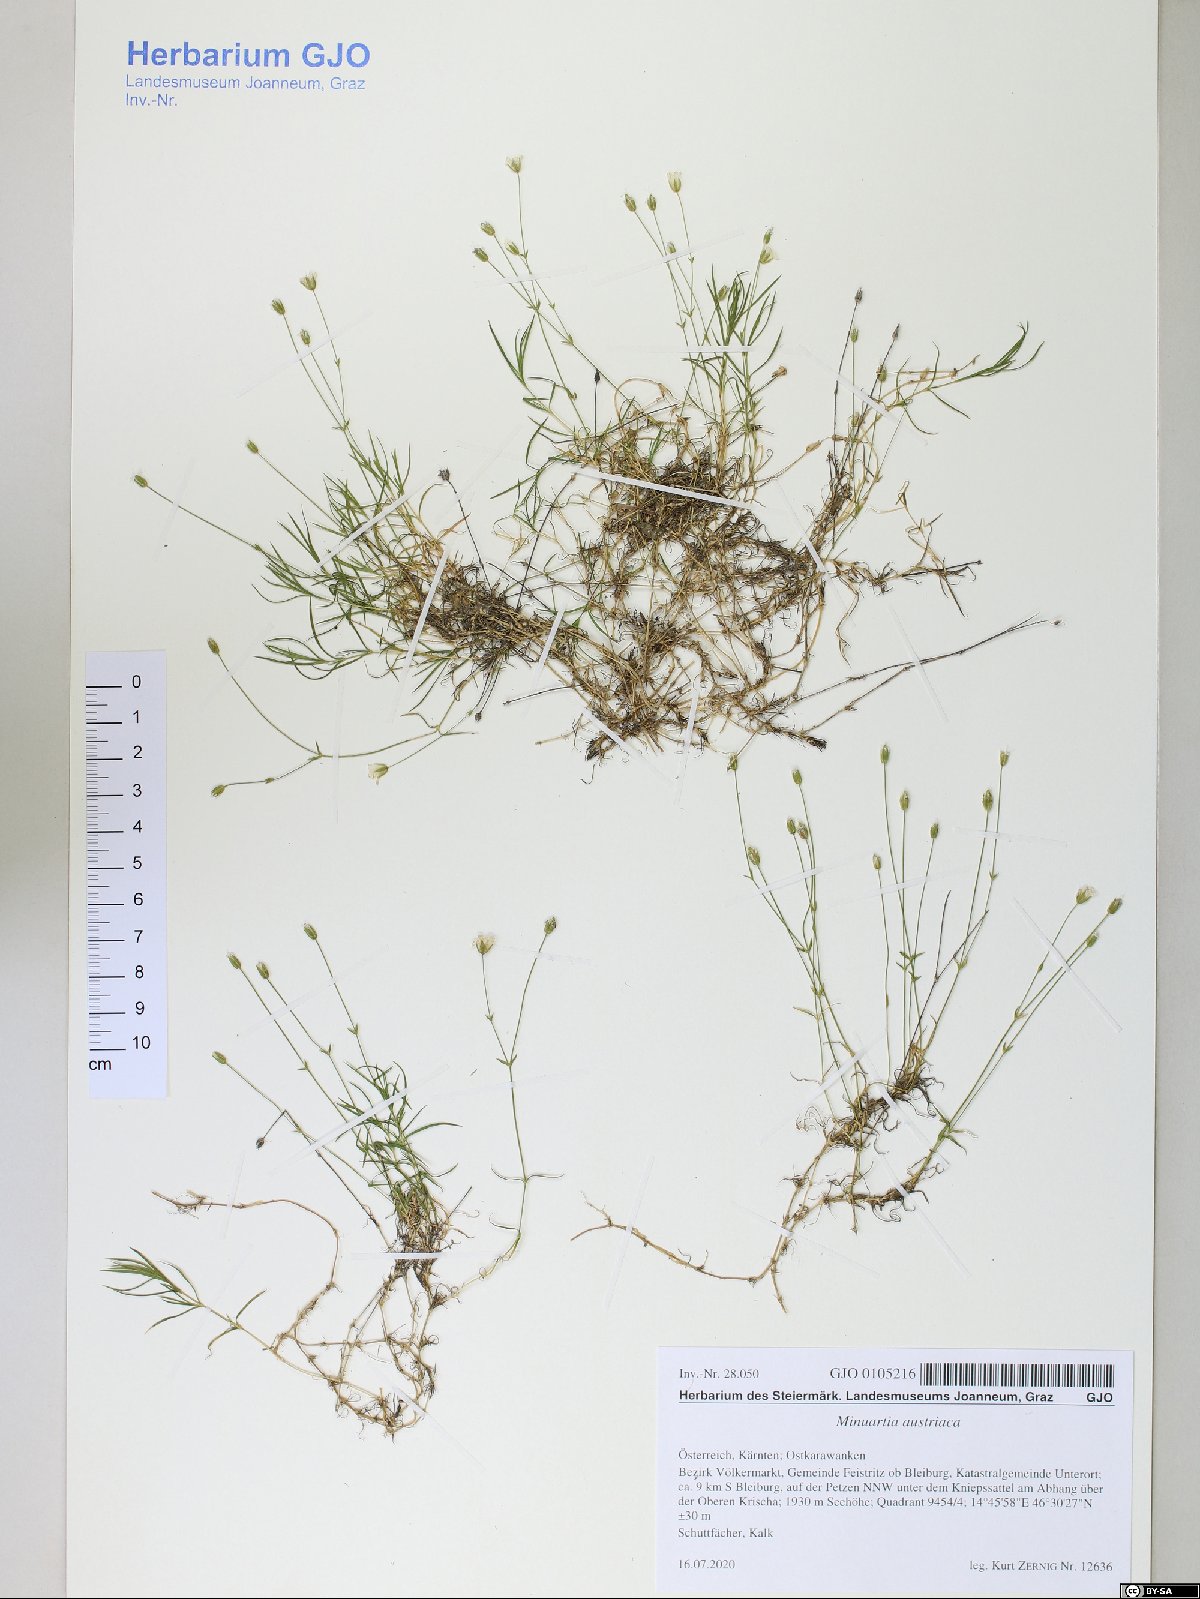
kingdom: Plantae
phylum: Tracheophyta
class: Magnoliopsida
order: Caryophyllales
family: Caryophyllaceae
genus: Sabulina
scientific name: Sabulina austriaca
